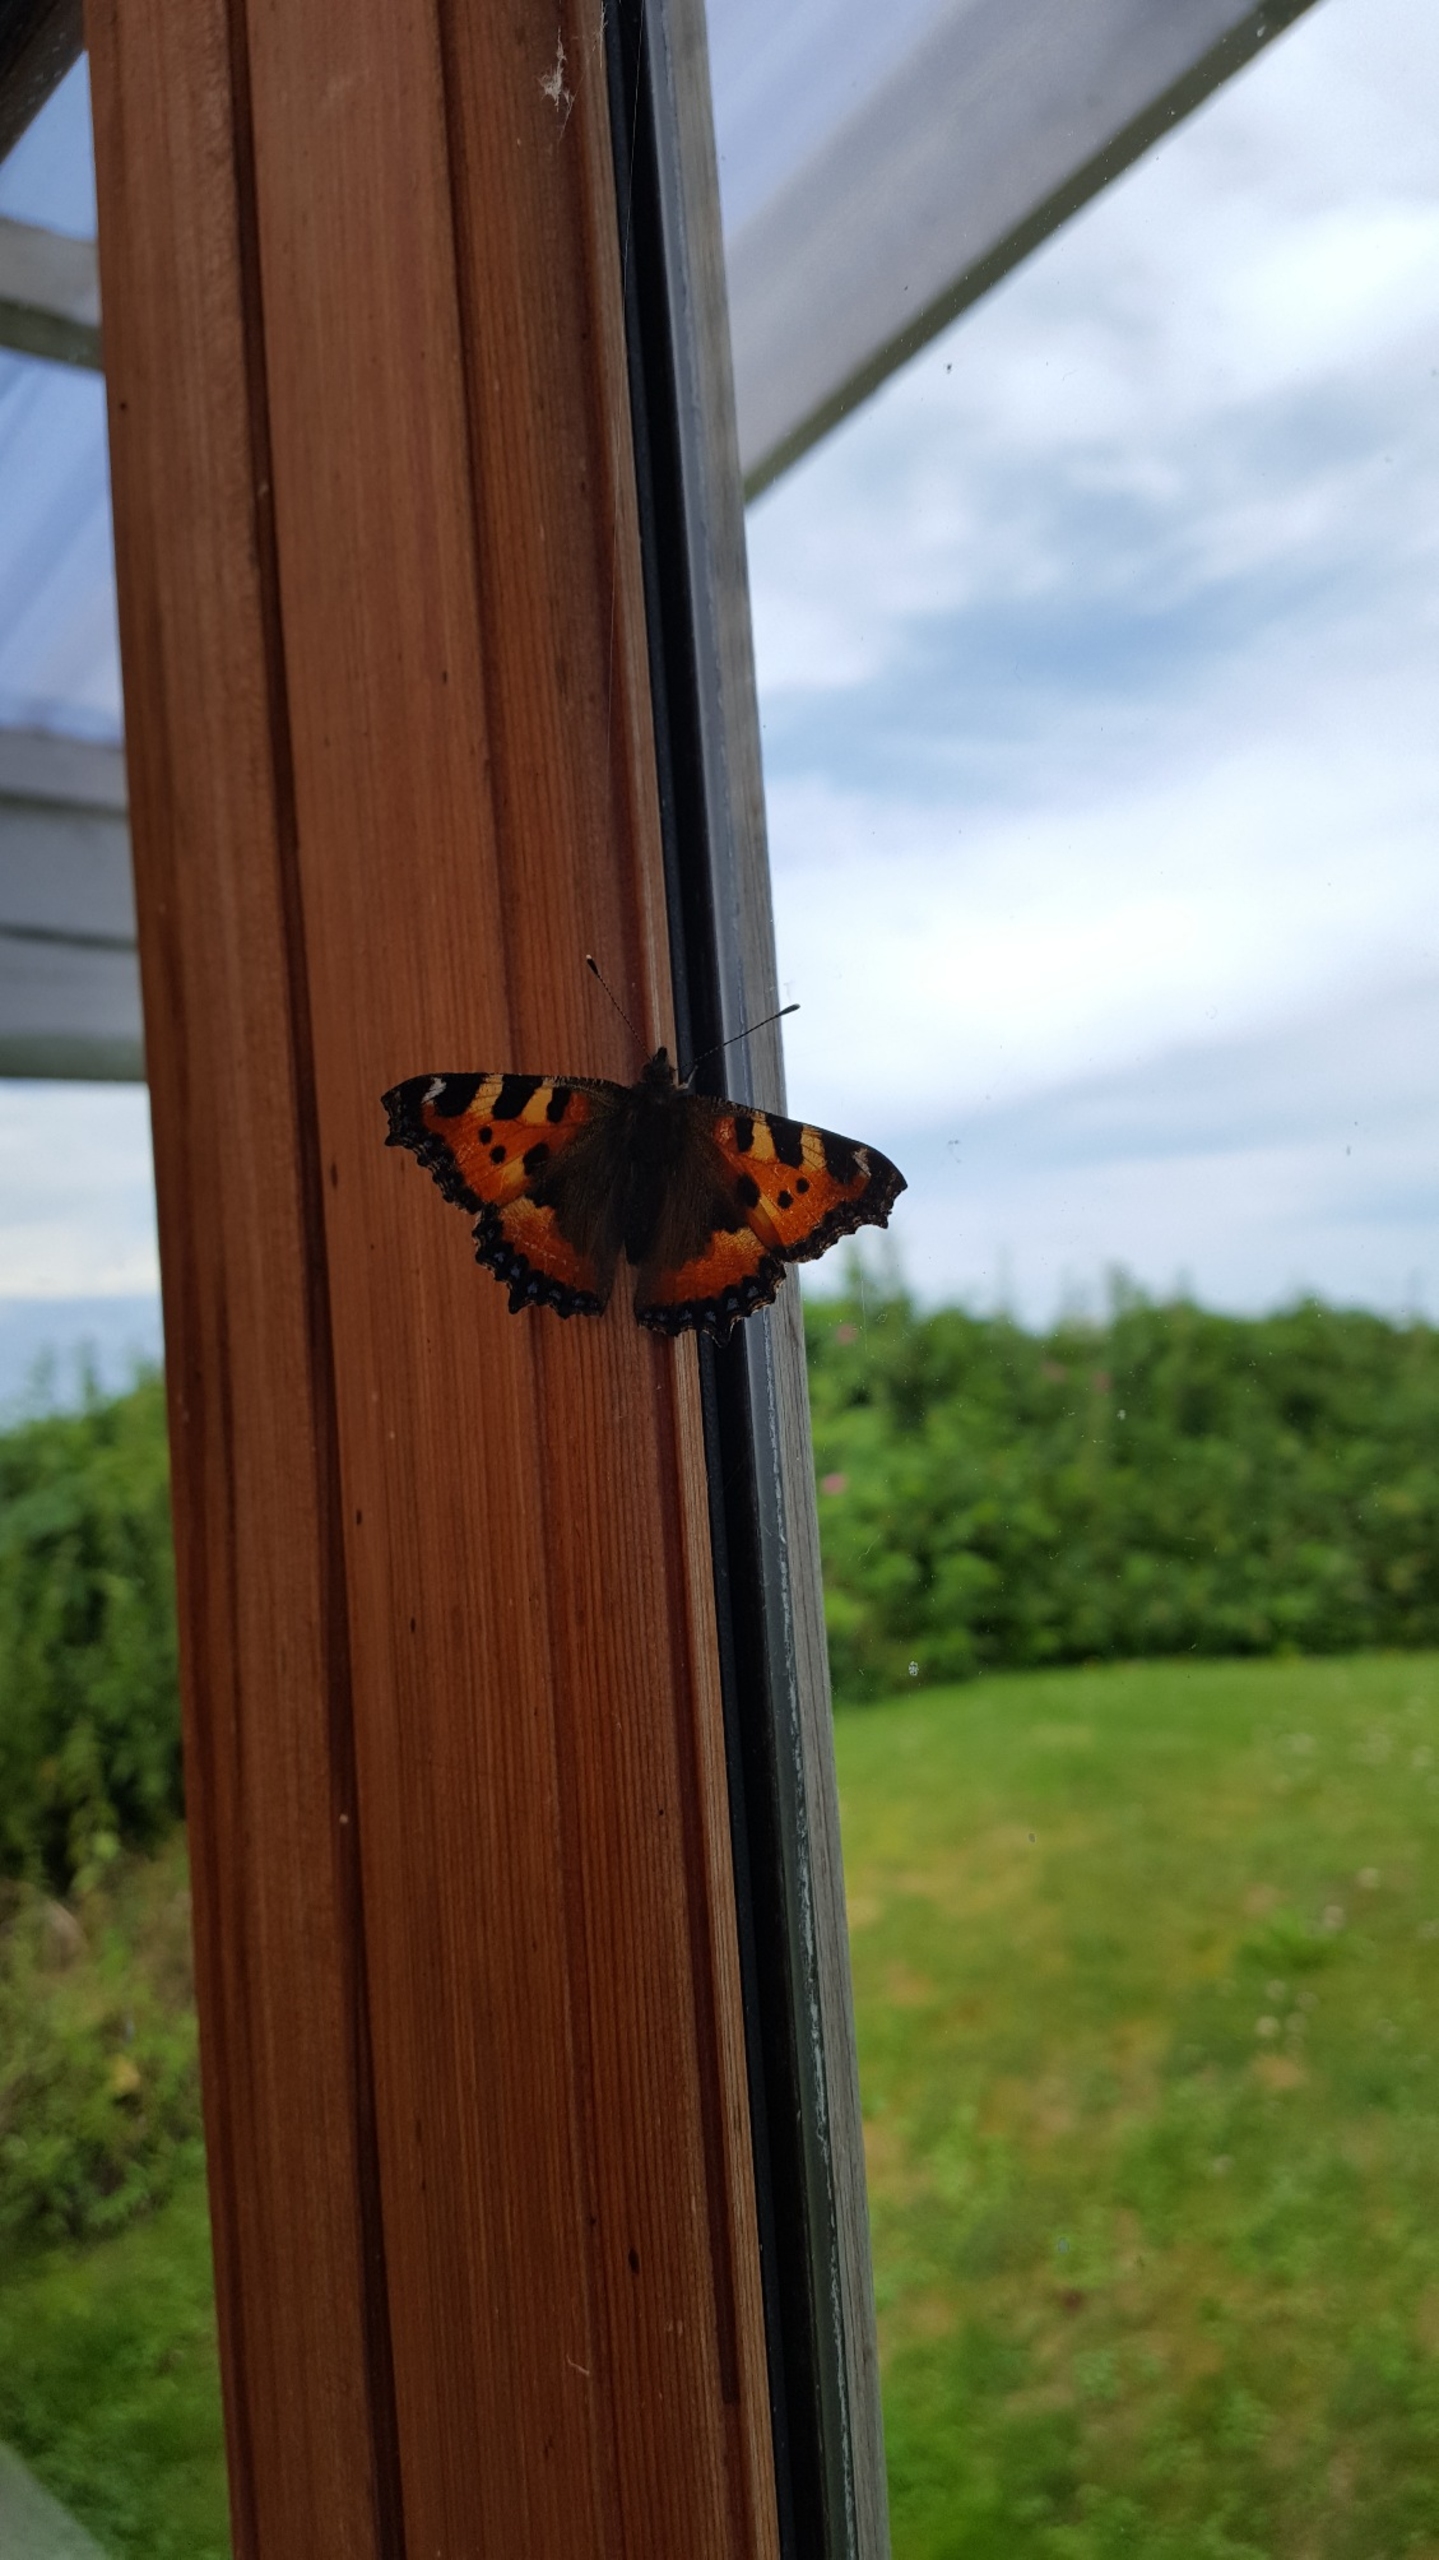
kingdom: Animalia
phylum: Arthropoda
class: Insecta
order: Lepidoptera
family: Nymphalidae
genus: Aglais
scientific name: Aglais urticae
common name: Nældens takvinge
